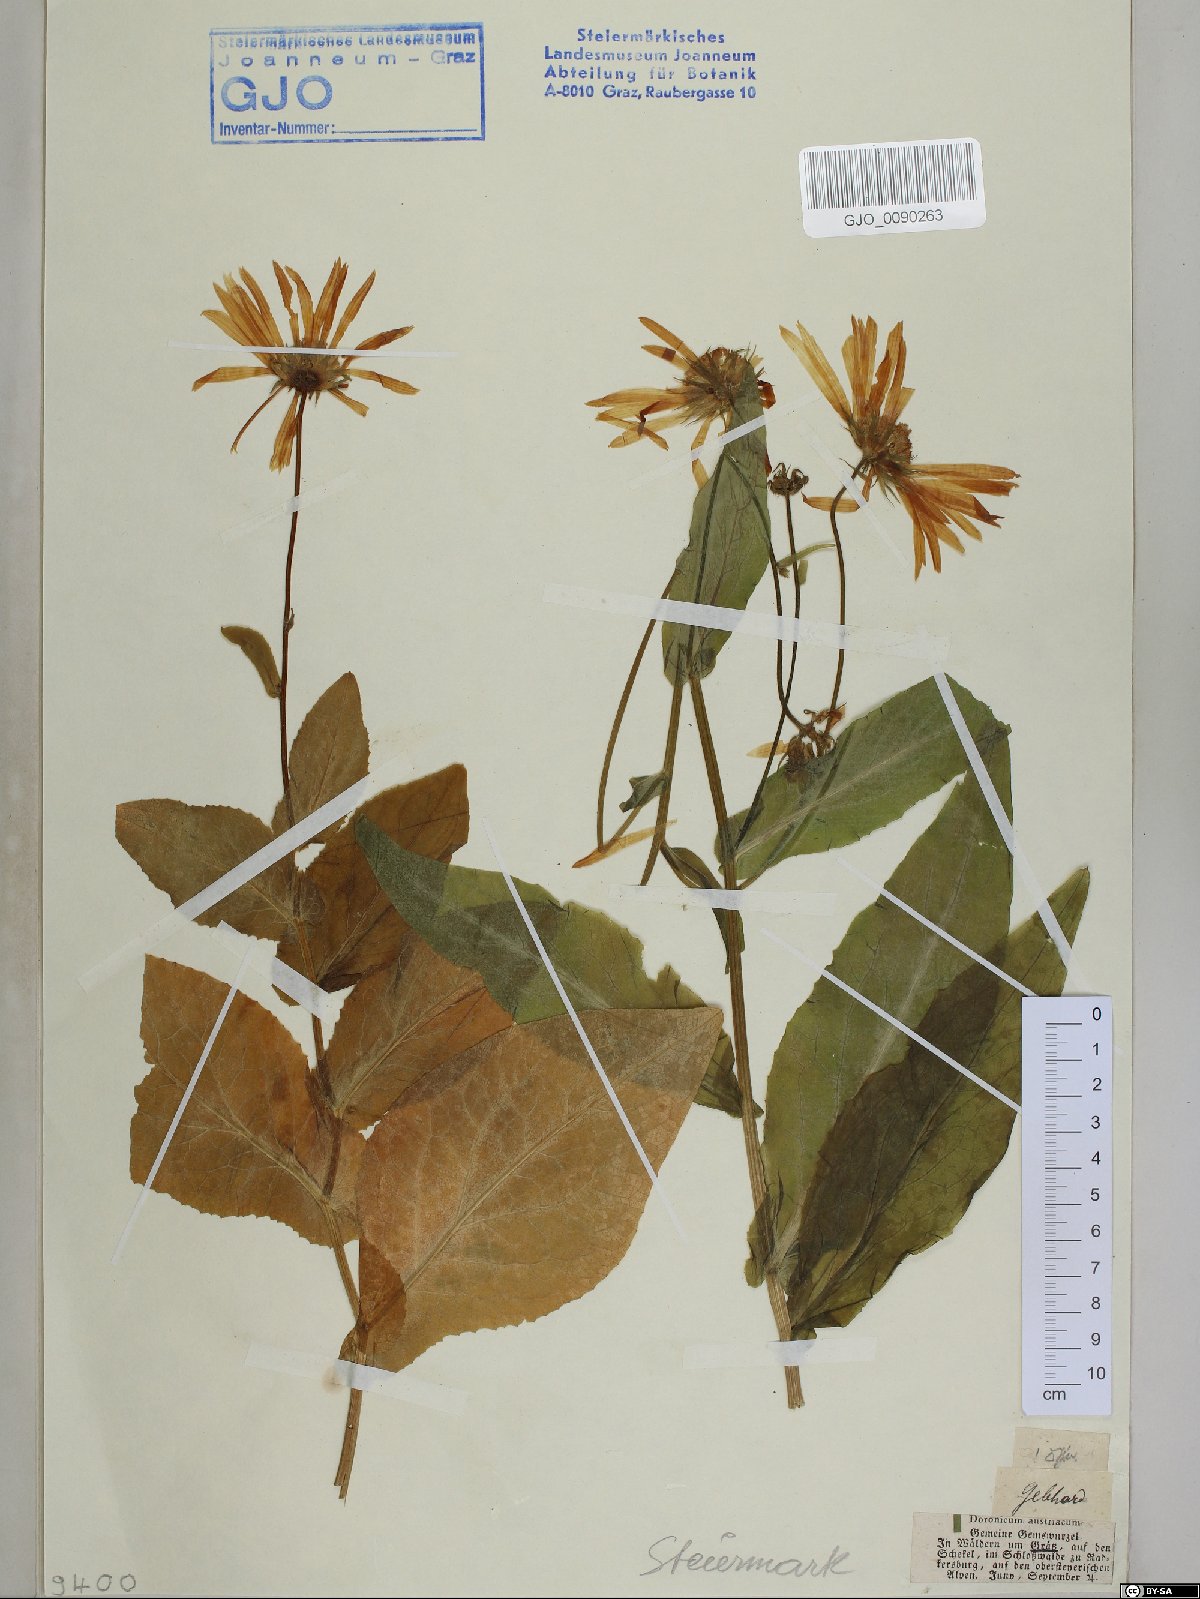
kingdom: Plantae
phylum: Tracheophyta
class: Magnoliopsida
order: Asterales
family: Asteraceae
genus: Doronicum
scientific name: Doronicum austriacum
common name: Austrian leopard's-bane
